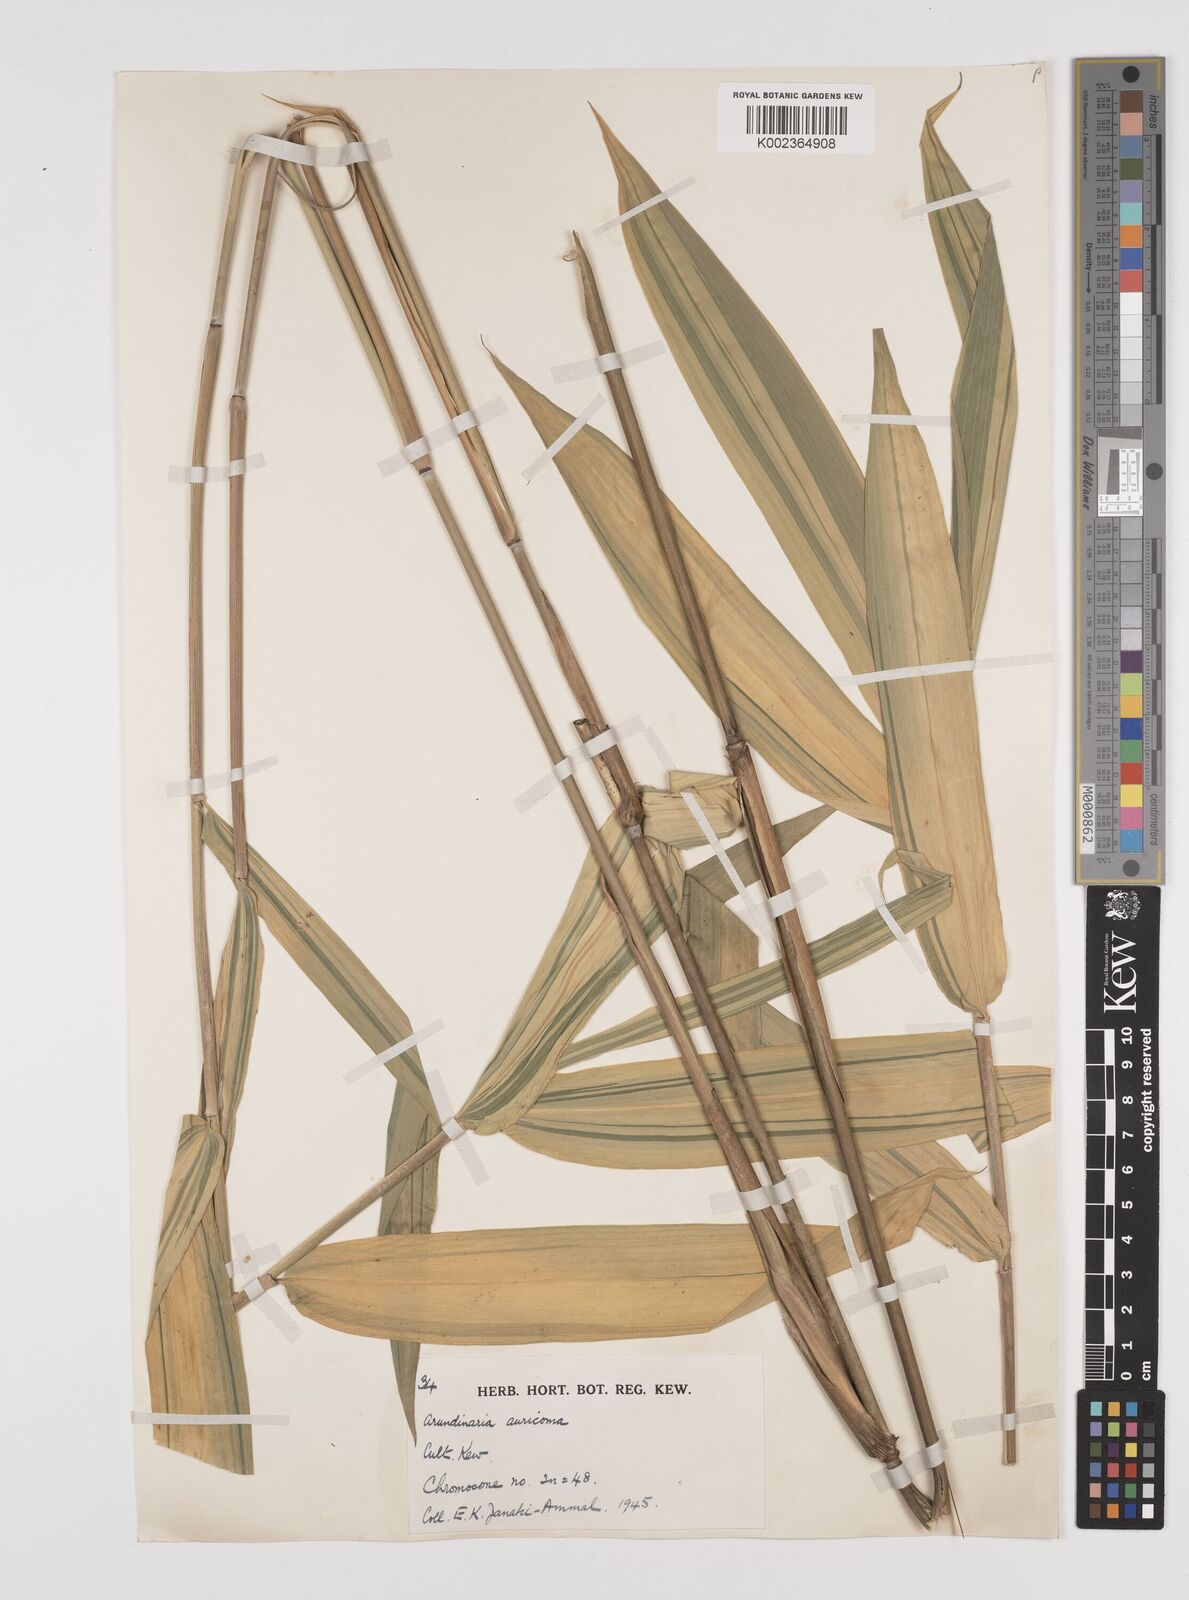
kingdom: Plantae
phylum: Tracheophyta
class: Liliopsida
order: Poales
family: Poaceae
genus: Pleioblastus
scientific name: Pleioblastus viridistriatus
